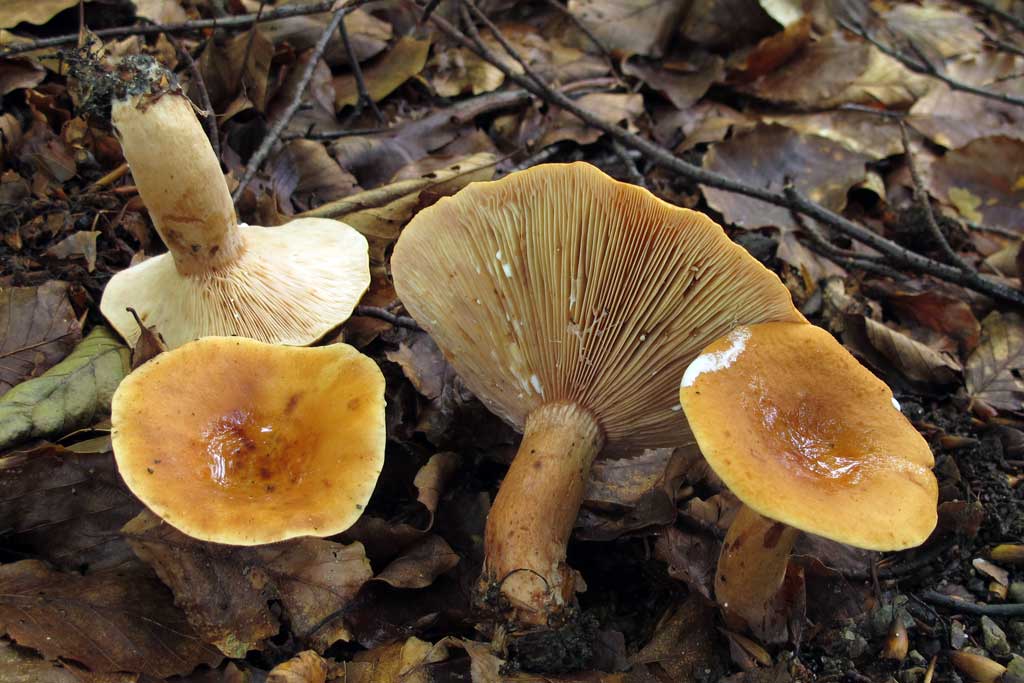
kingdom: Fungi
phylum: Basidiomycota
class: Agaricomycetes
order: Russulales
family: Russulaceae
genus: Lactarius
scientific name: Lactarius rubrocinctus
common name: halsbånd-mælkehat
